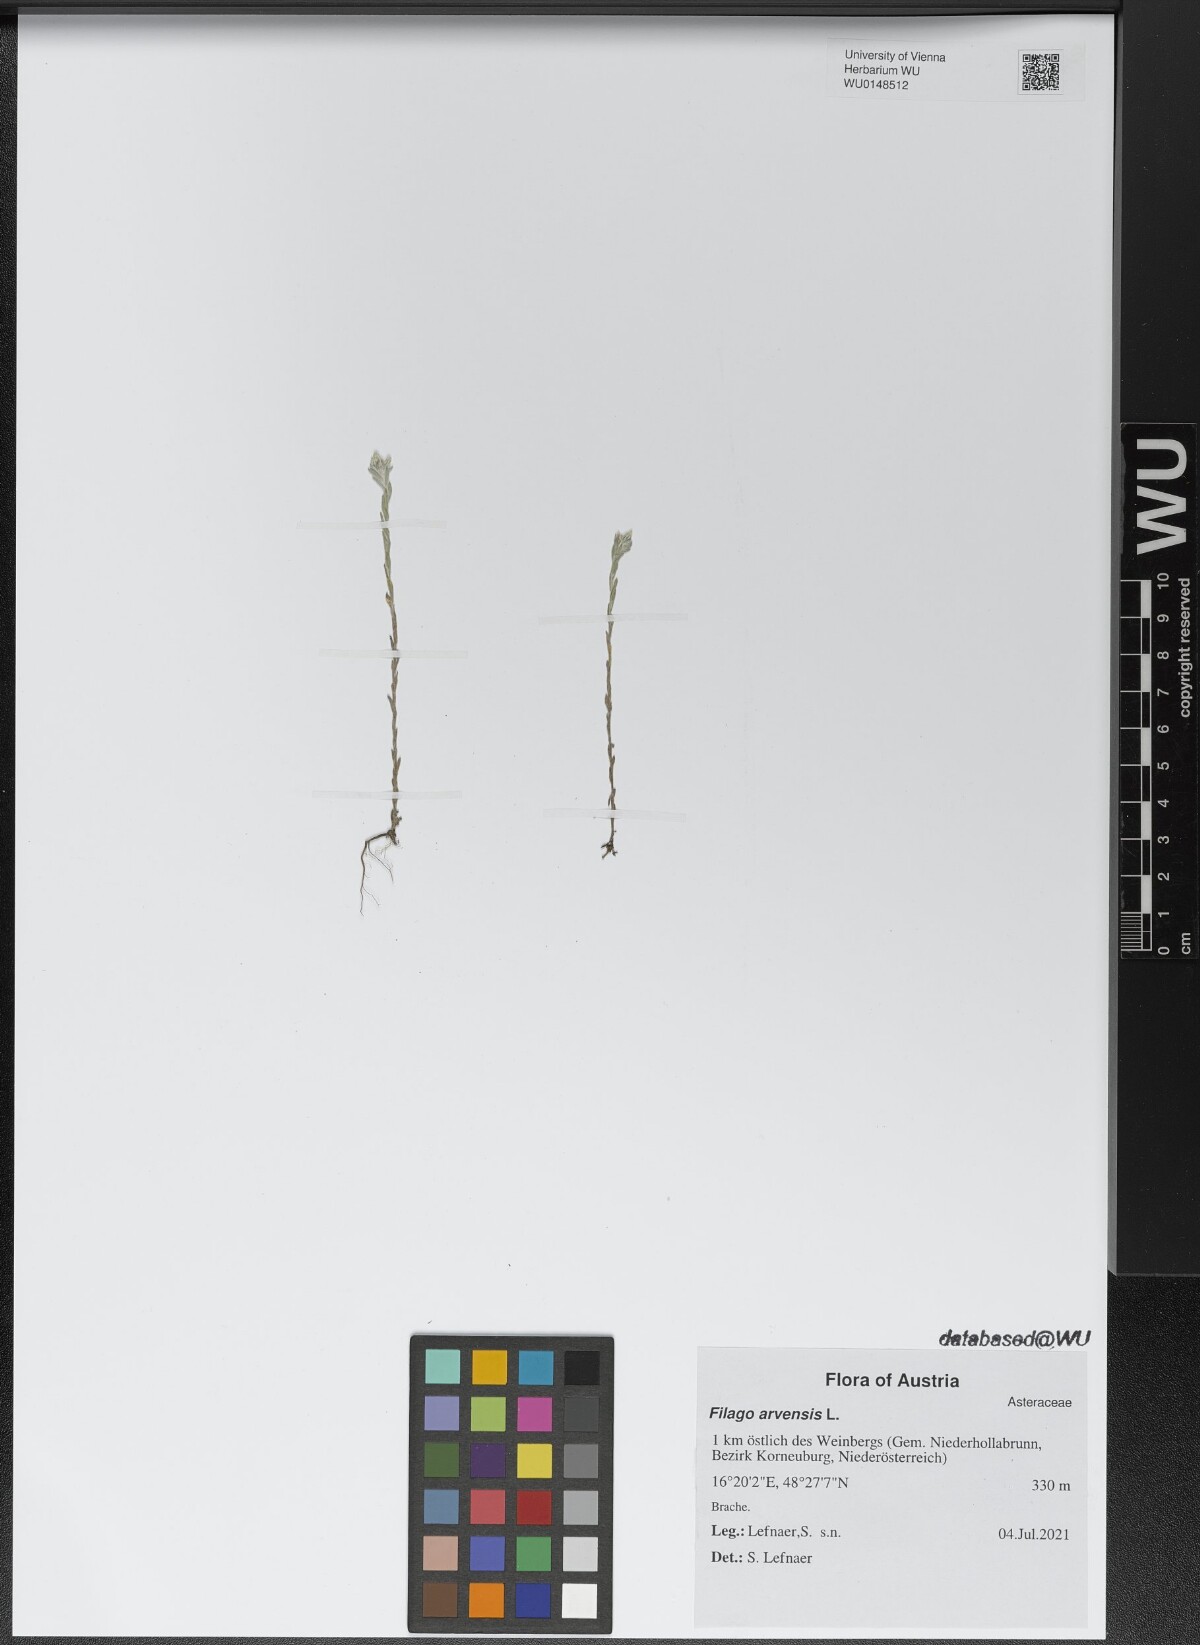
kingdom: Plantae
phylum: Tracheophyta
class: Magnoliopsida
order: Asterales
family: Asteraceae
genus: Filago
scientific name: Filago arvensis
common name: Field cudweed
